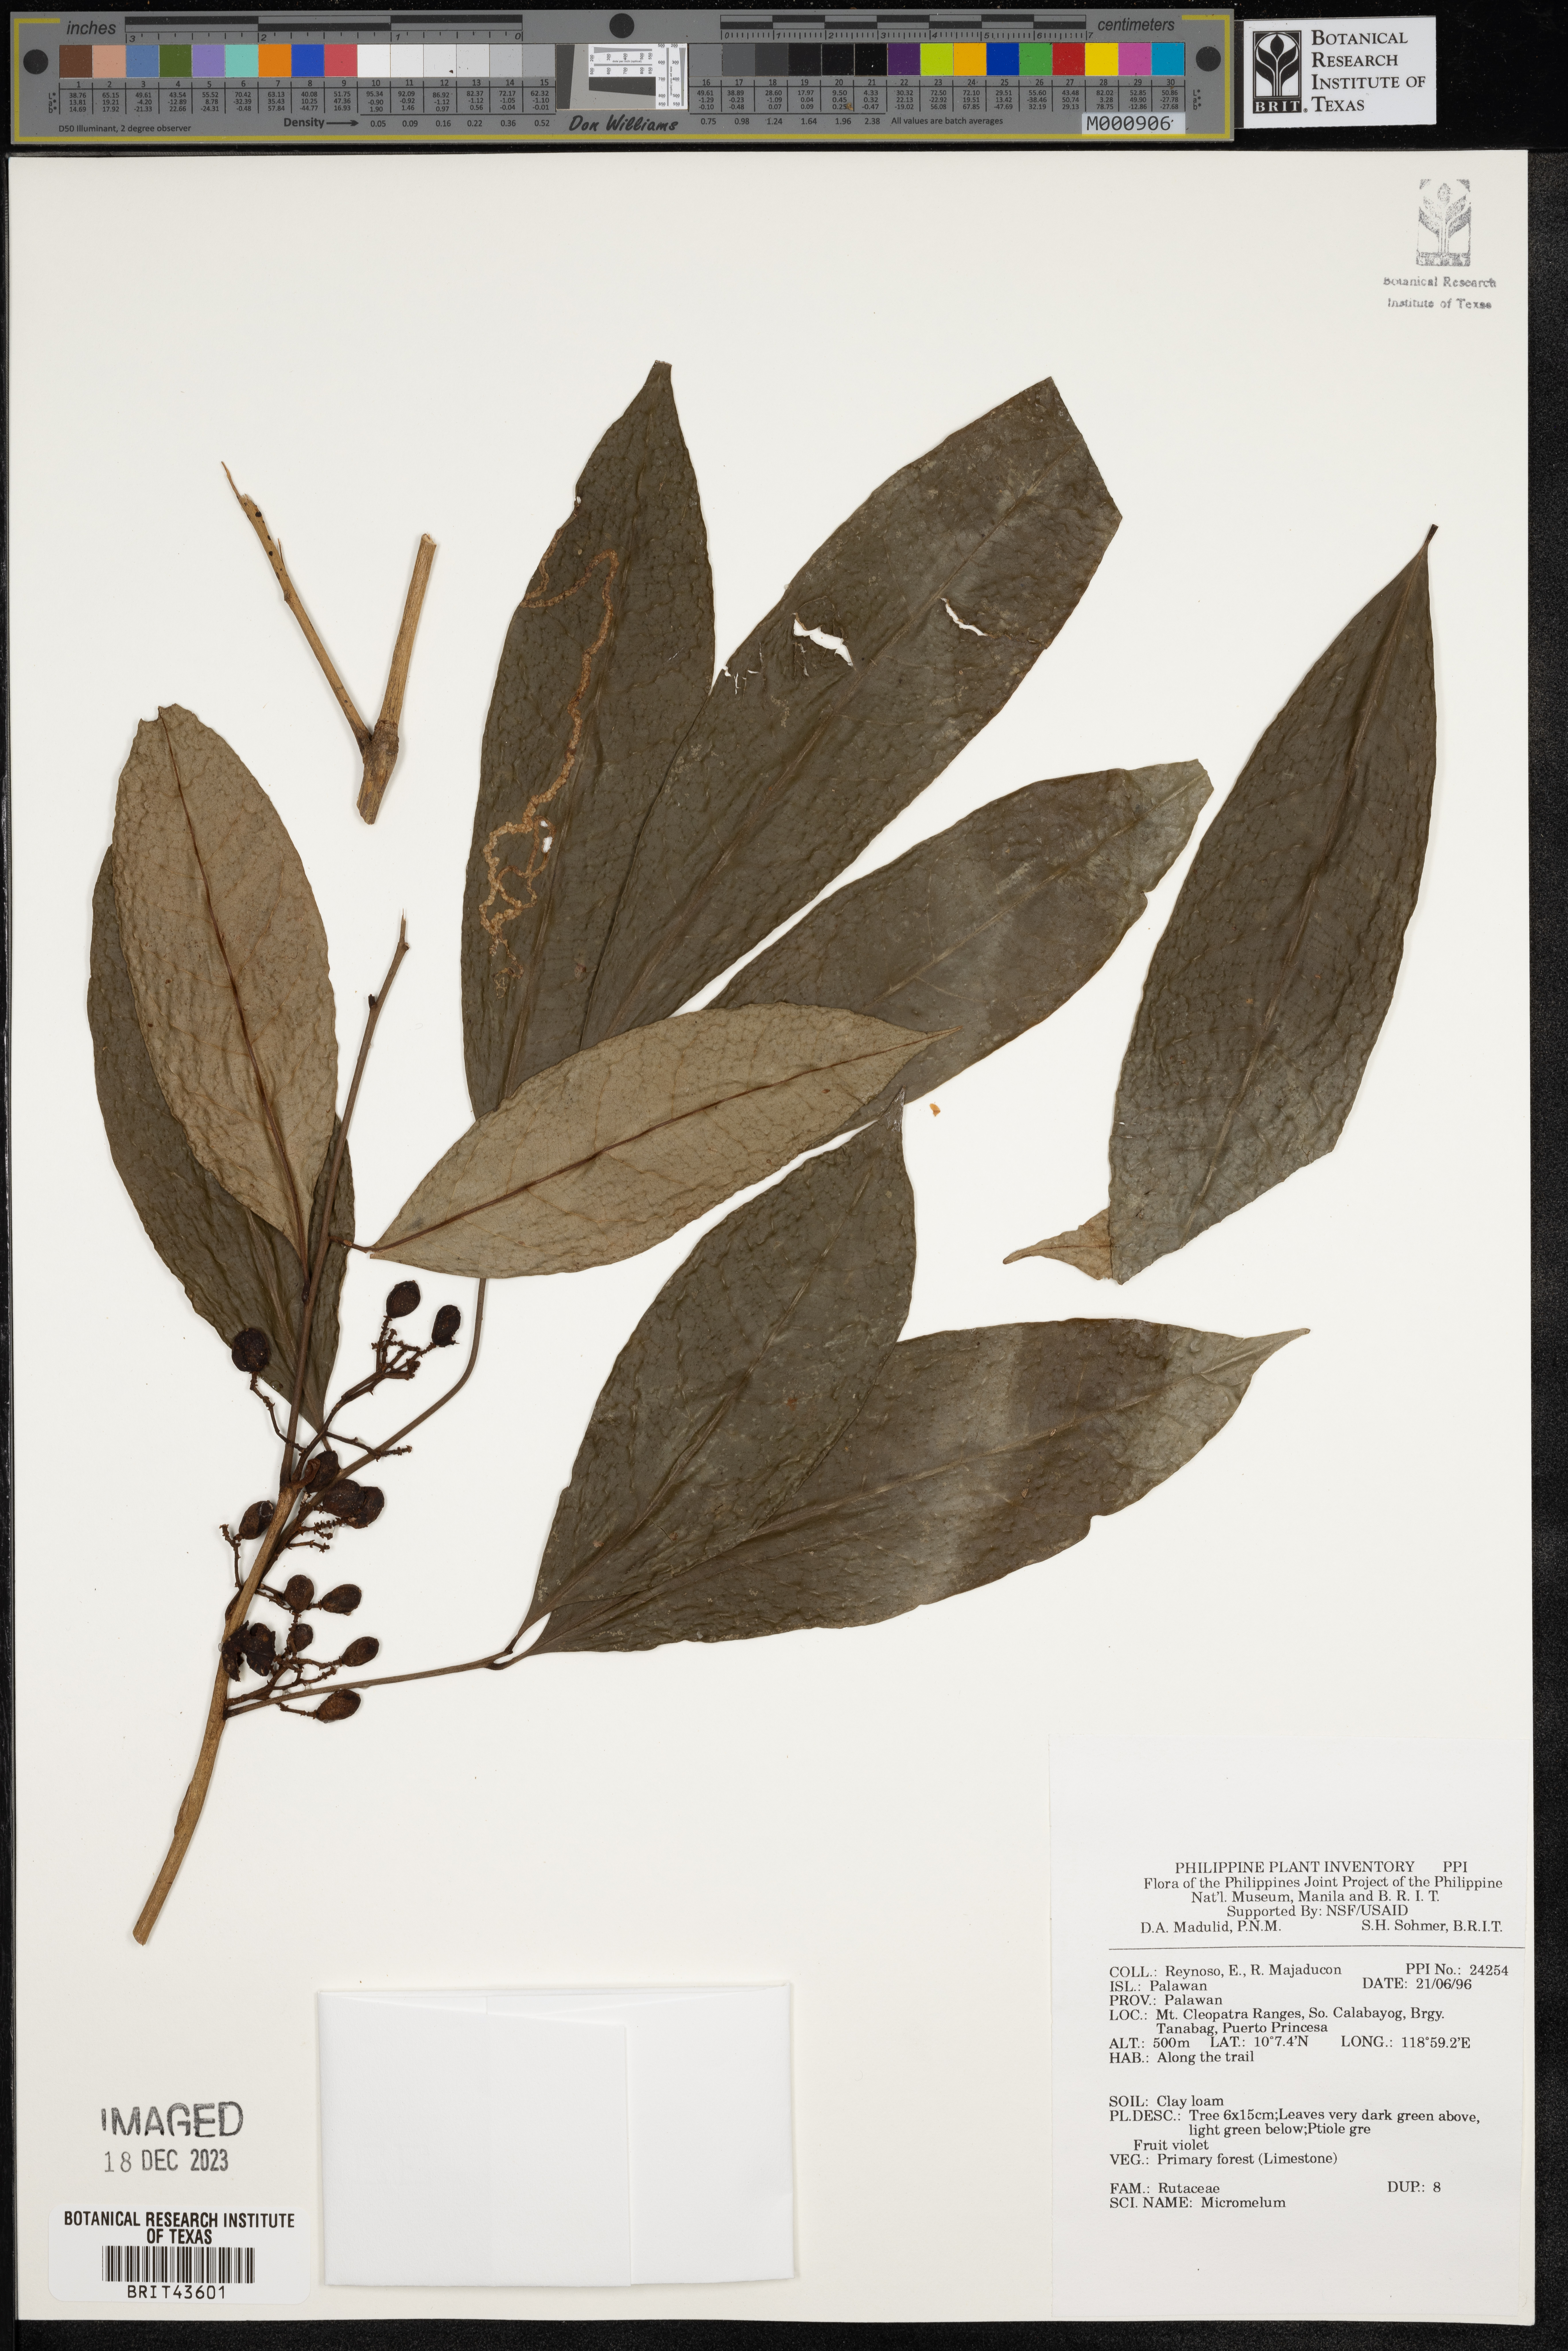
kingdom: Plantae
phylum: Tracheophyta
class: Magnoliopsida
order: Sapindales
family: Rutaceae
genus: Micromelum
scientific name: Micromelum
